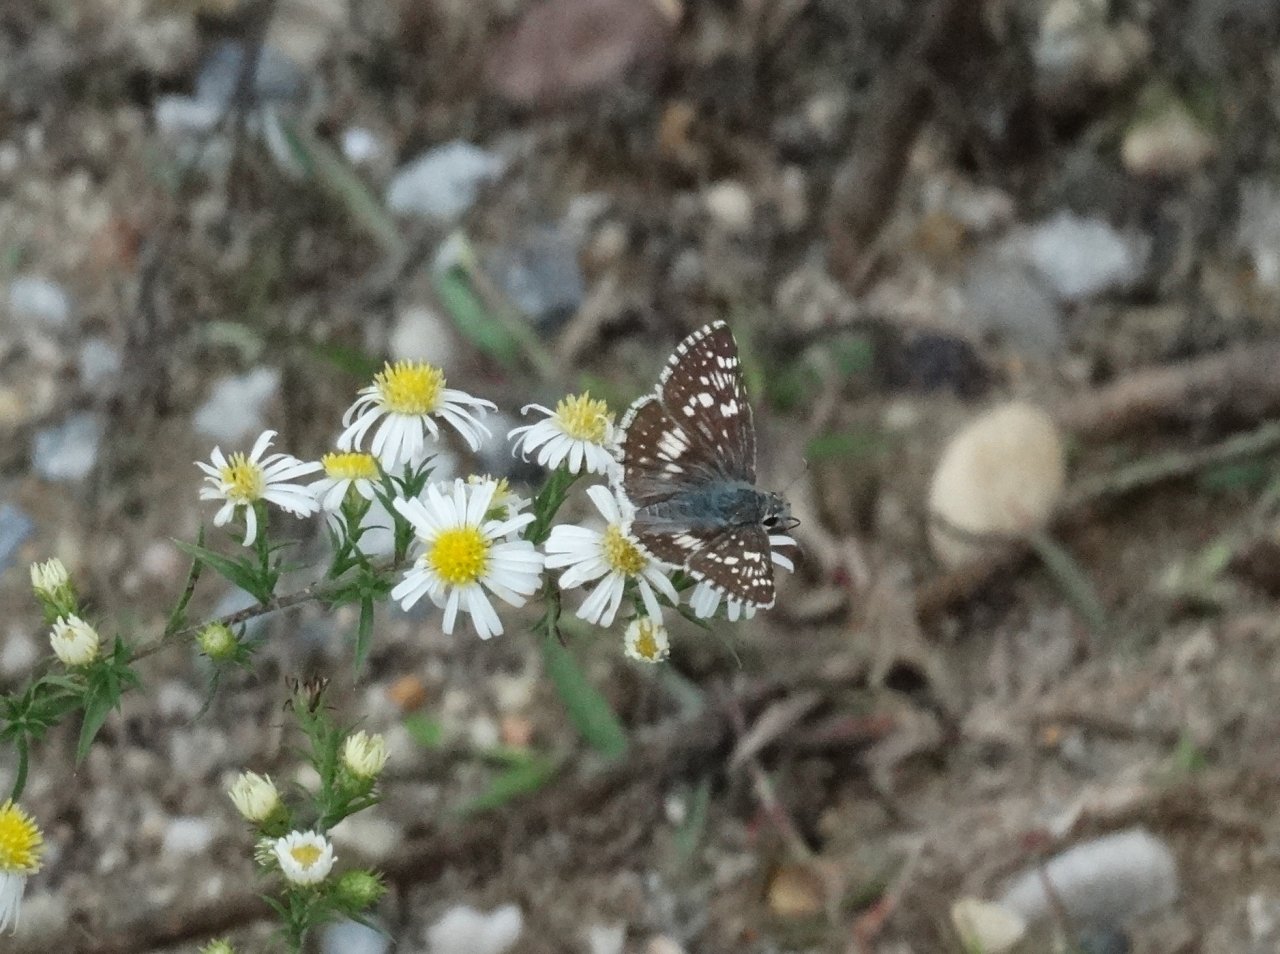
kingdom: Animalia
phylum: Arthropoda
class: Insecta
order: Lepidoptera
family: Hesperiidae
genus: Pyrgus
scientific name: Pyrgus communis
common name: Common Checkered-Skipper
